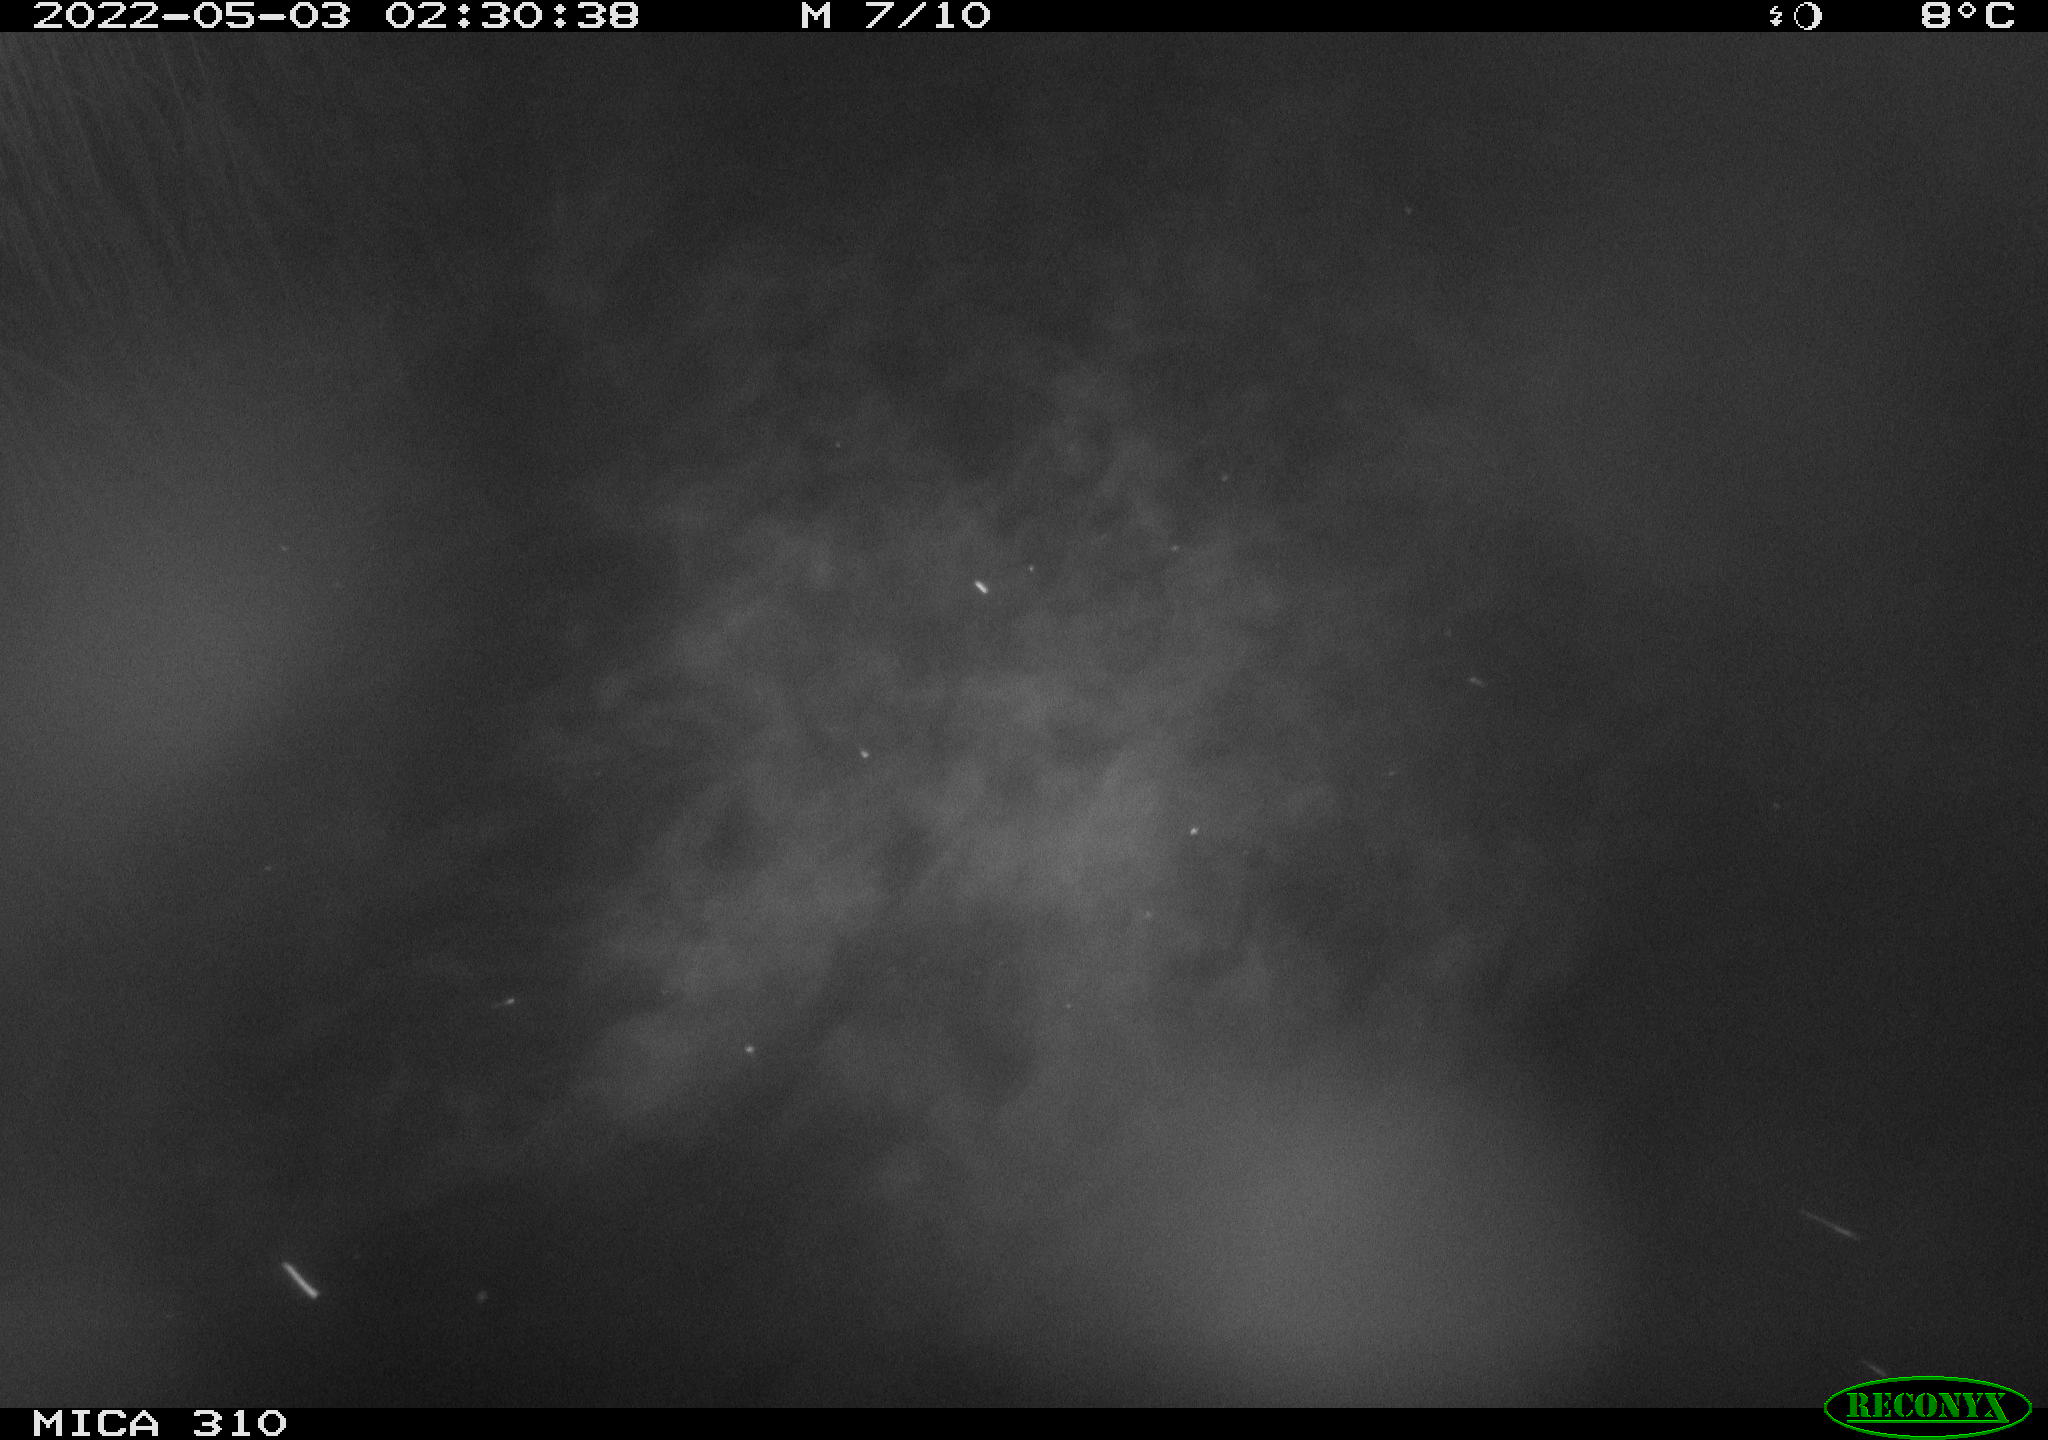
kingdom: Animalia
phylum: Chordata
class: Aves
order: Anseriformes
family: Anatidae
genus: Anas
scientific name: Anas platyrhynchos
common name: Mallard
